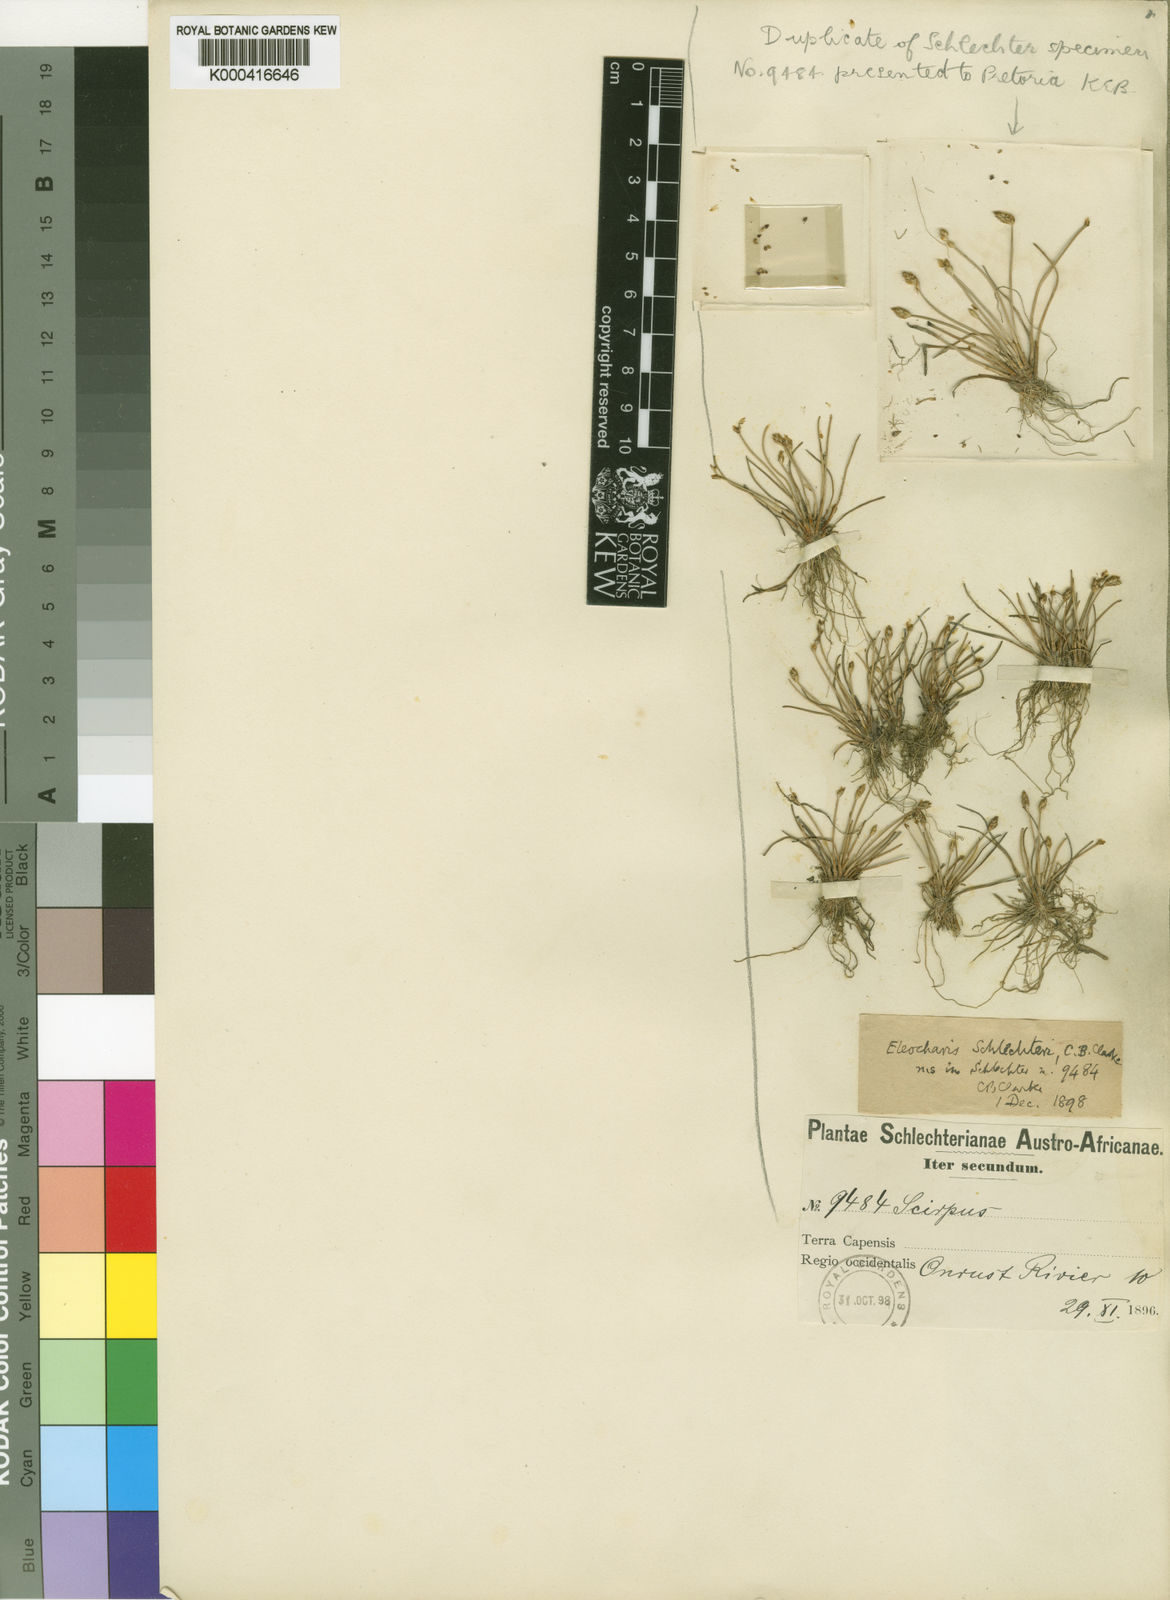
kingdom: Plantae
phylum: Tracheophyta
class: Liliopsida
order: Poales
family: Cyperaceae
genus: Eleocharis
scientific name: Eleocharis geniculata
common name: Canada spikesedge
